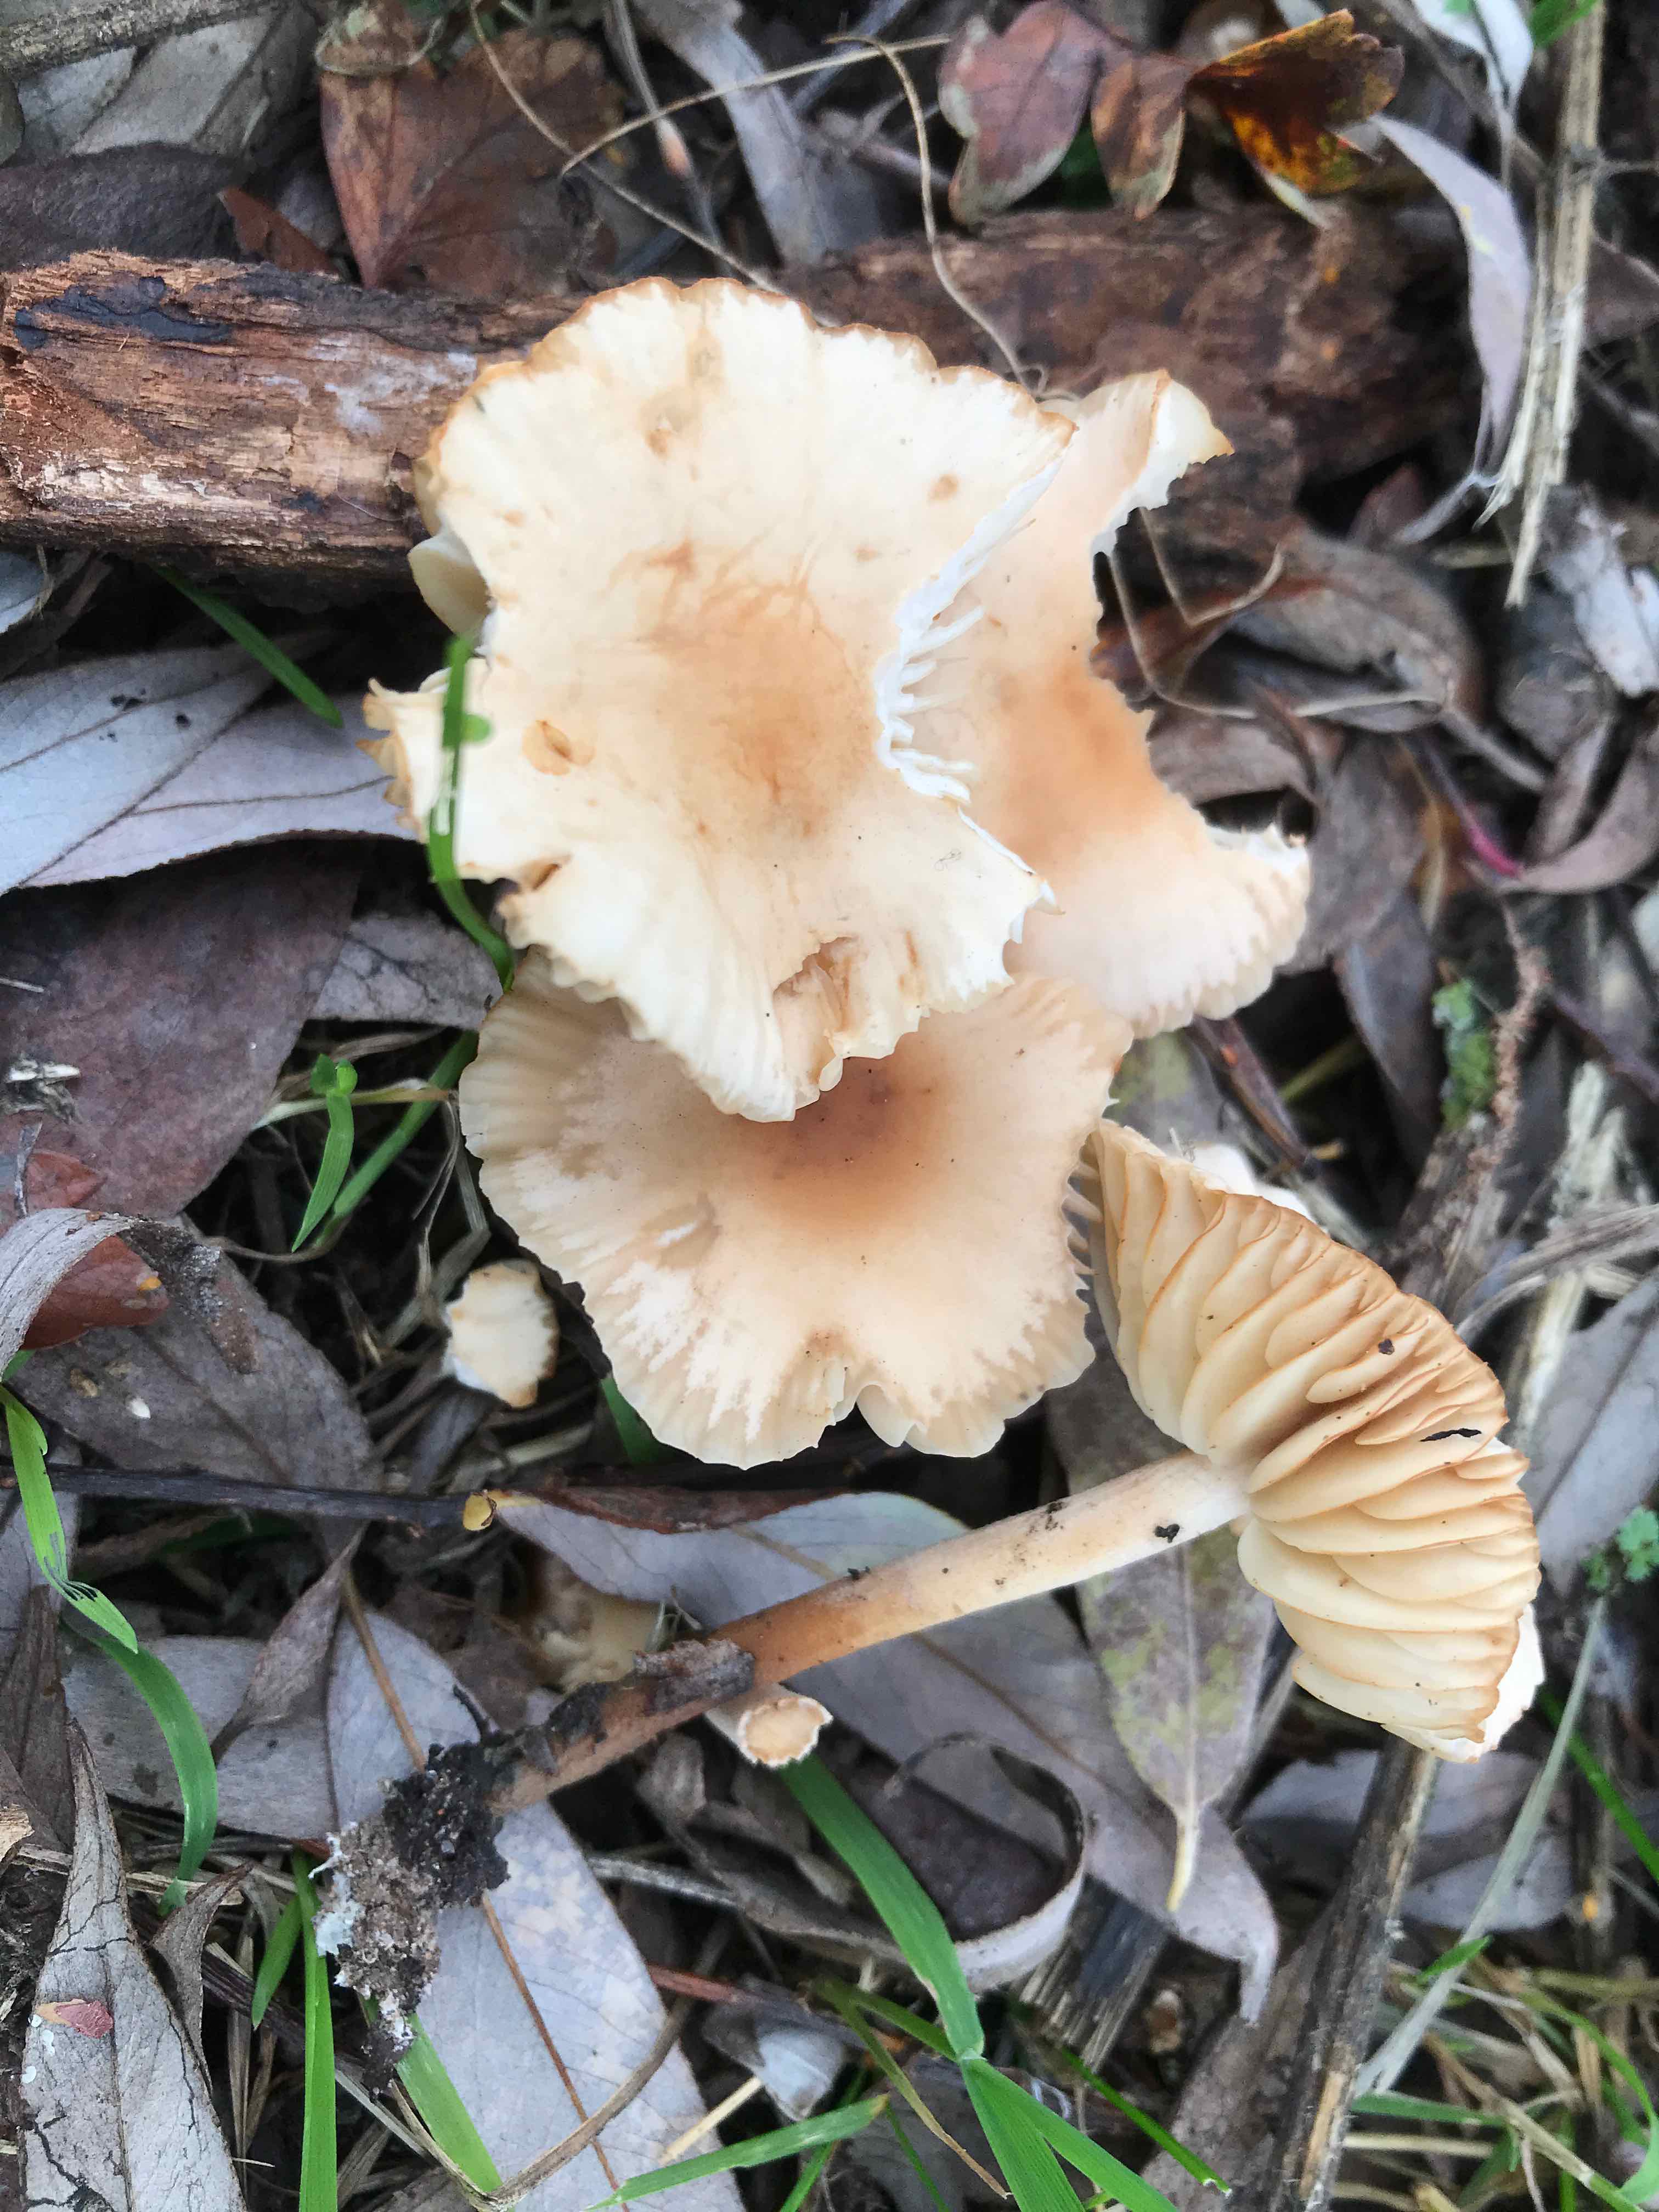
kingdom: Fungi
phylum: Basidiomycota
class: Agaricomycetes
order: Agaricales
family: Marasmiaceae
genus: Marasmius
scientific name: Marasmius oreades
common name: elledans-bruskhat
